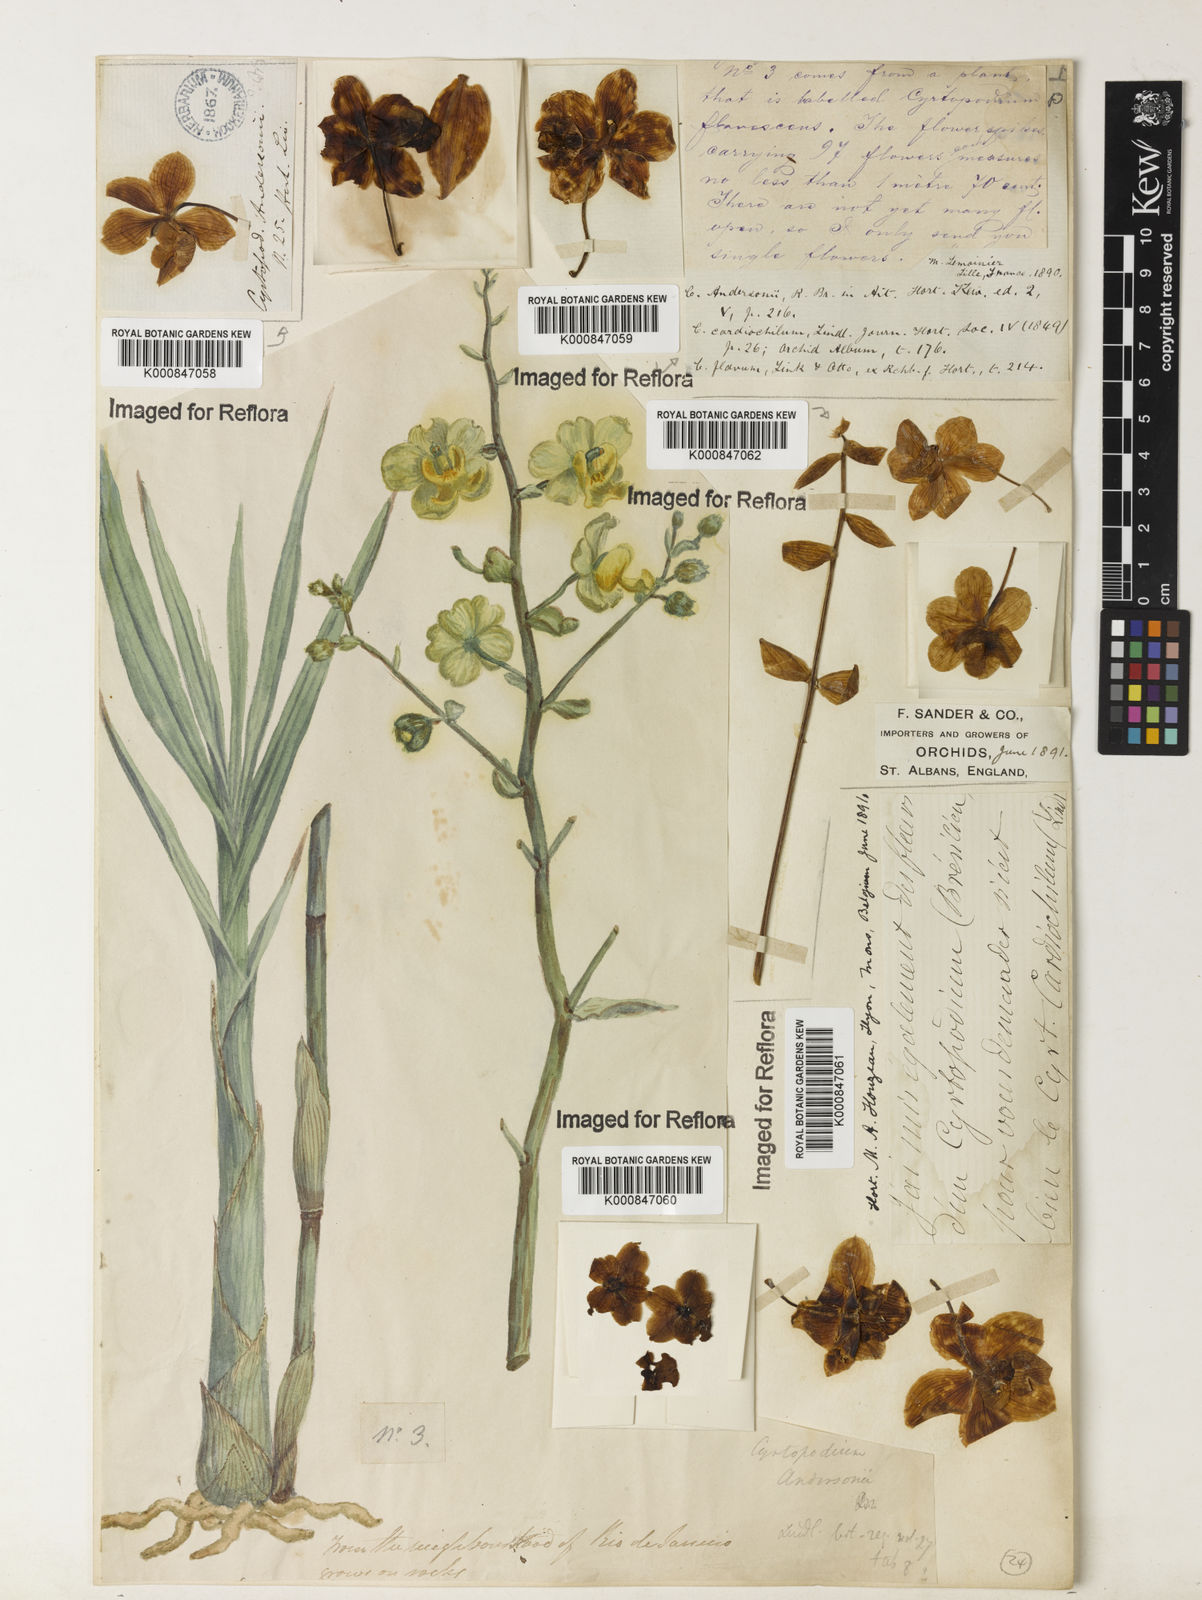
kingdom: Plantae
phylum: Tracheophyta
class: Liliopsida
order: Asparagales
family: Orchidaceae
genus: Cyrtopodium
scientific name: Cyrtopodium andersonii
